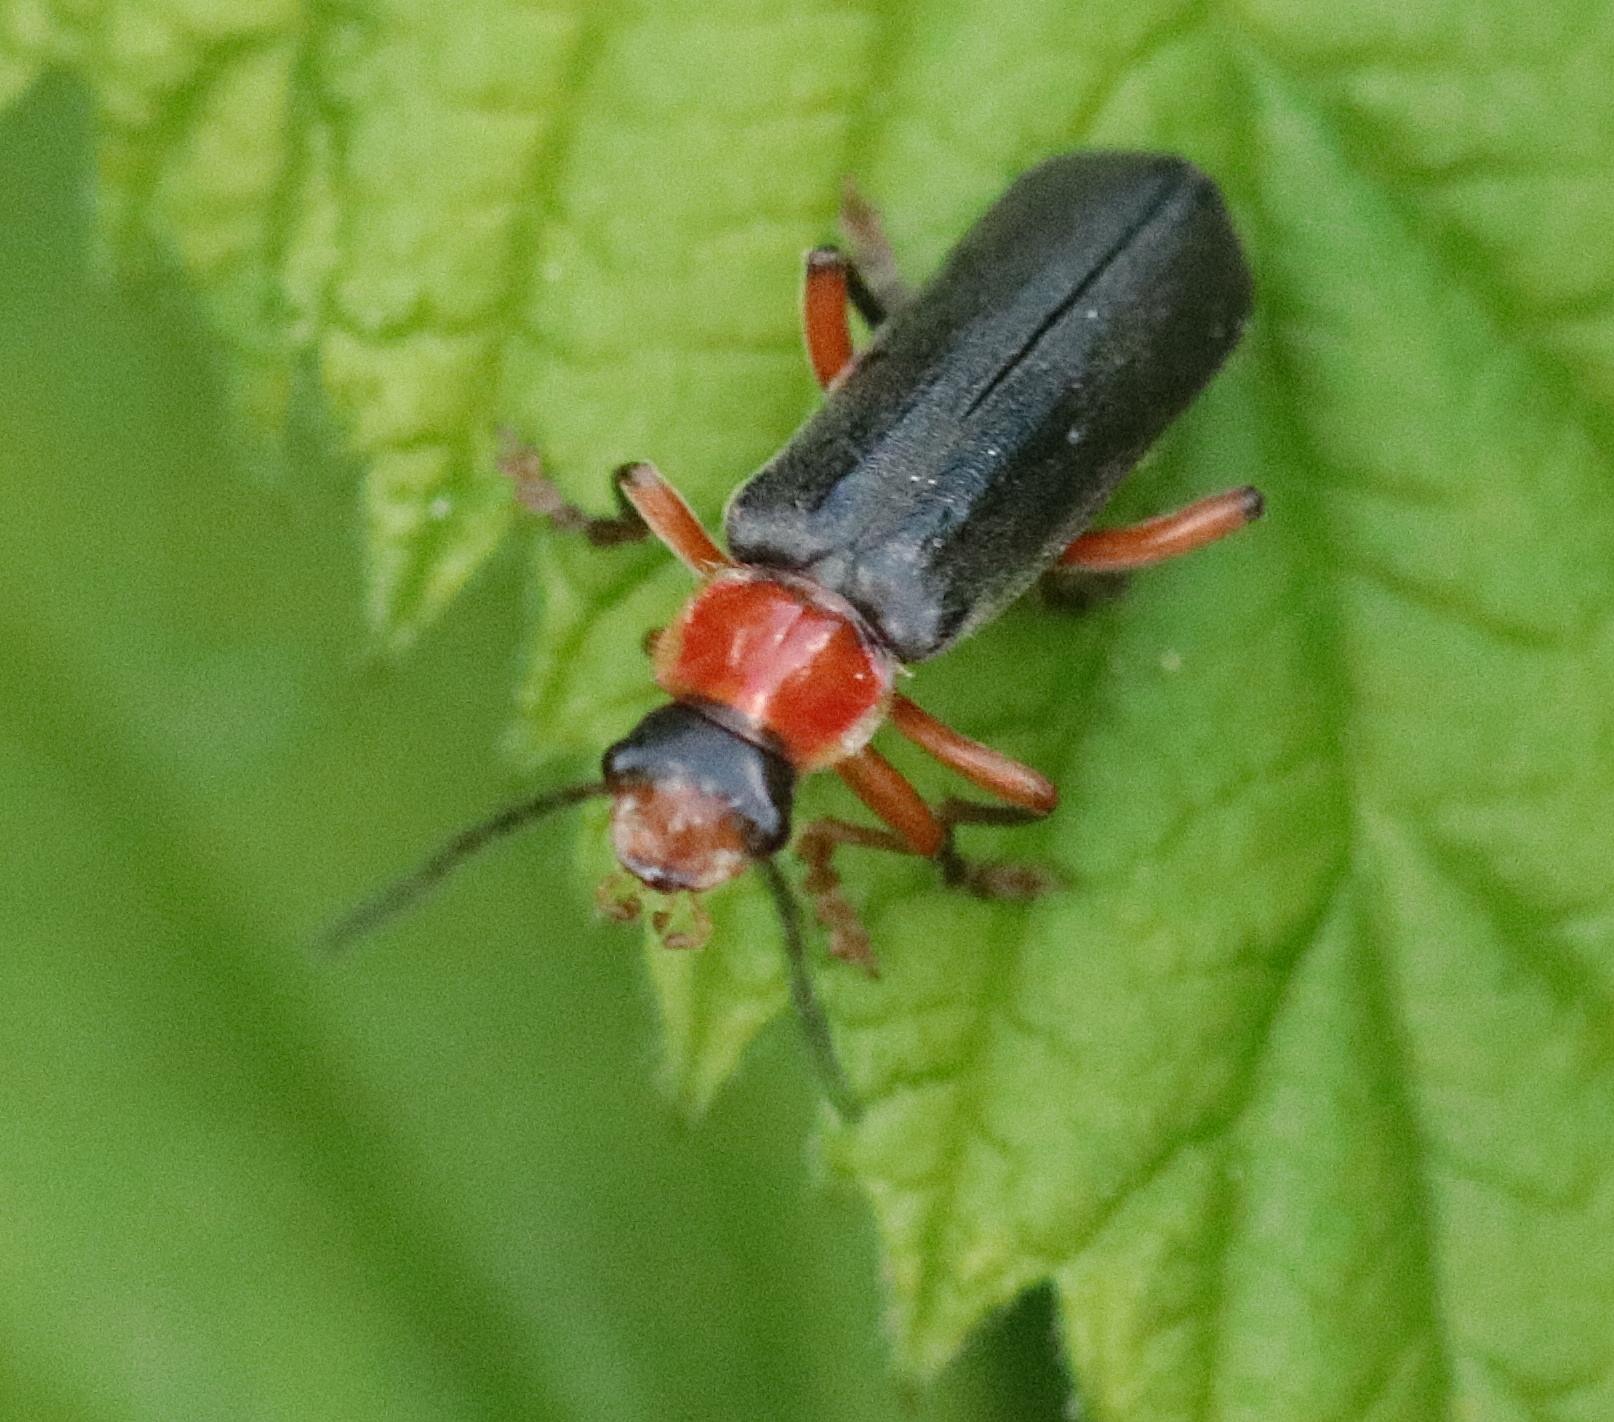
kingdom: Animalia
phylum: Arthropoda
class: Insecta
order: Coleoptera
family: Cantharidae
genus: Cantharis
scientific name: Cantharis pellucida
